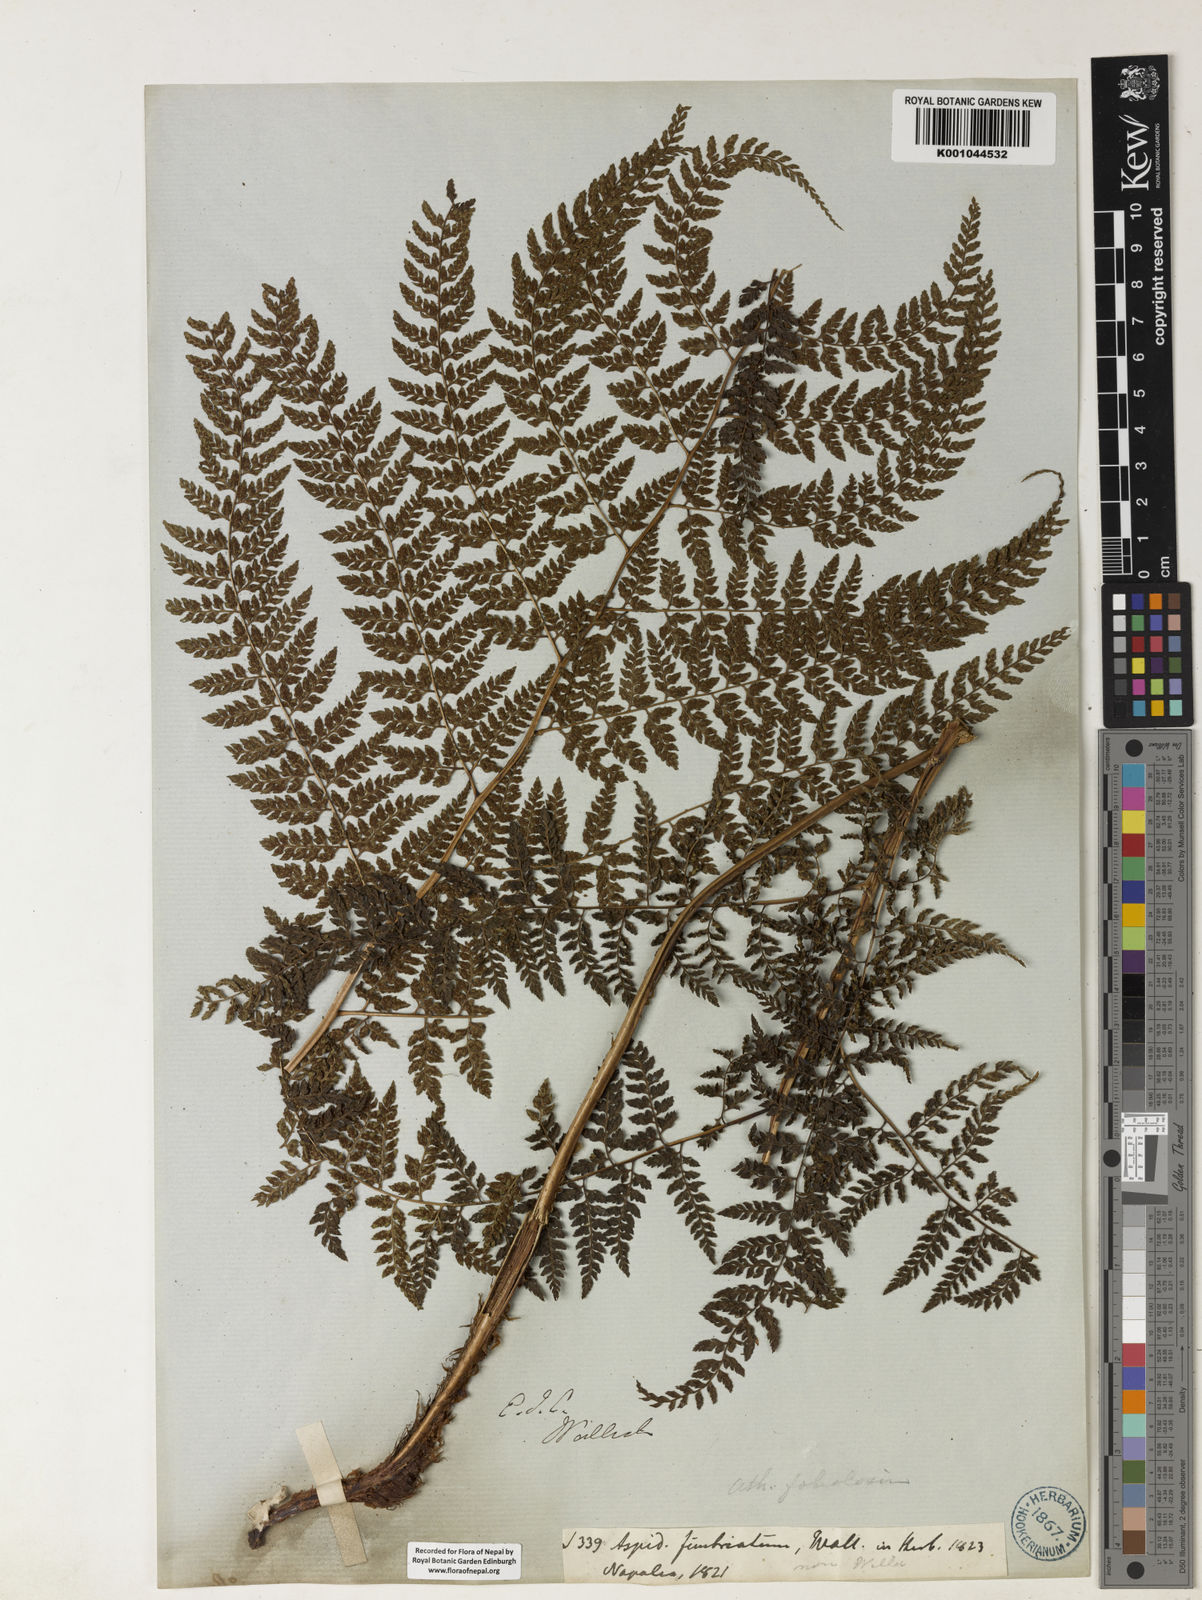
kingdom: Plantae
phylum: Tracheophyta
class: Polypodiopsida
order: Polypodiales
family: Athyriaceae
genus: Athyrium
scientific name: Athyrium fimbriatum
